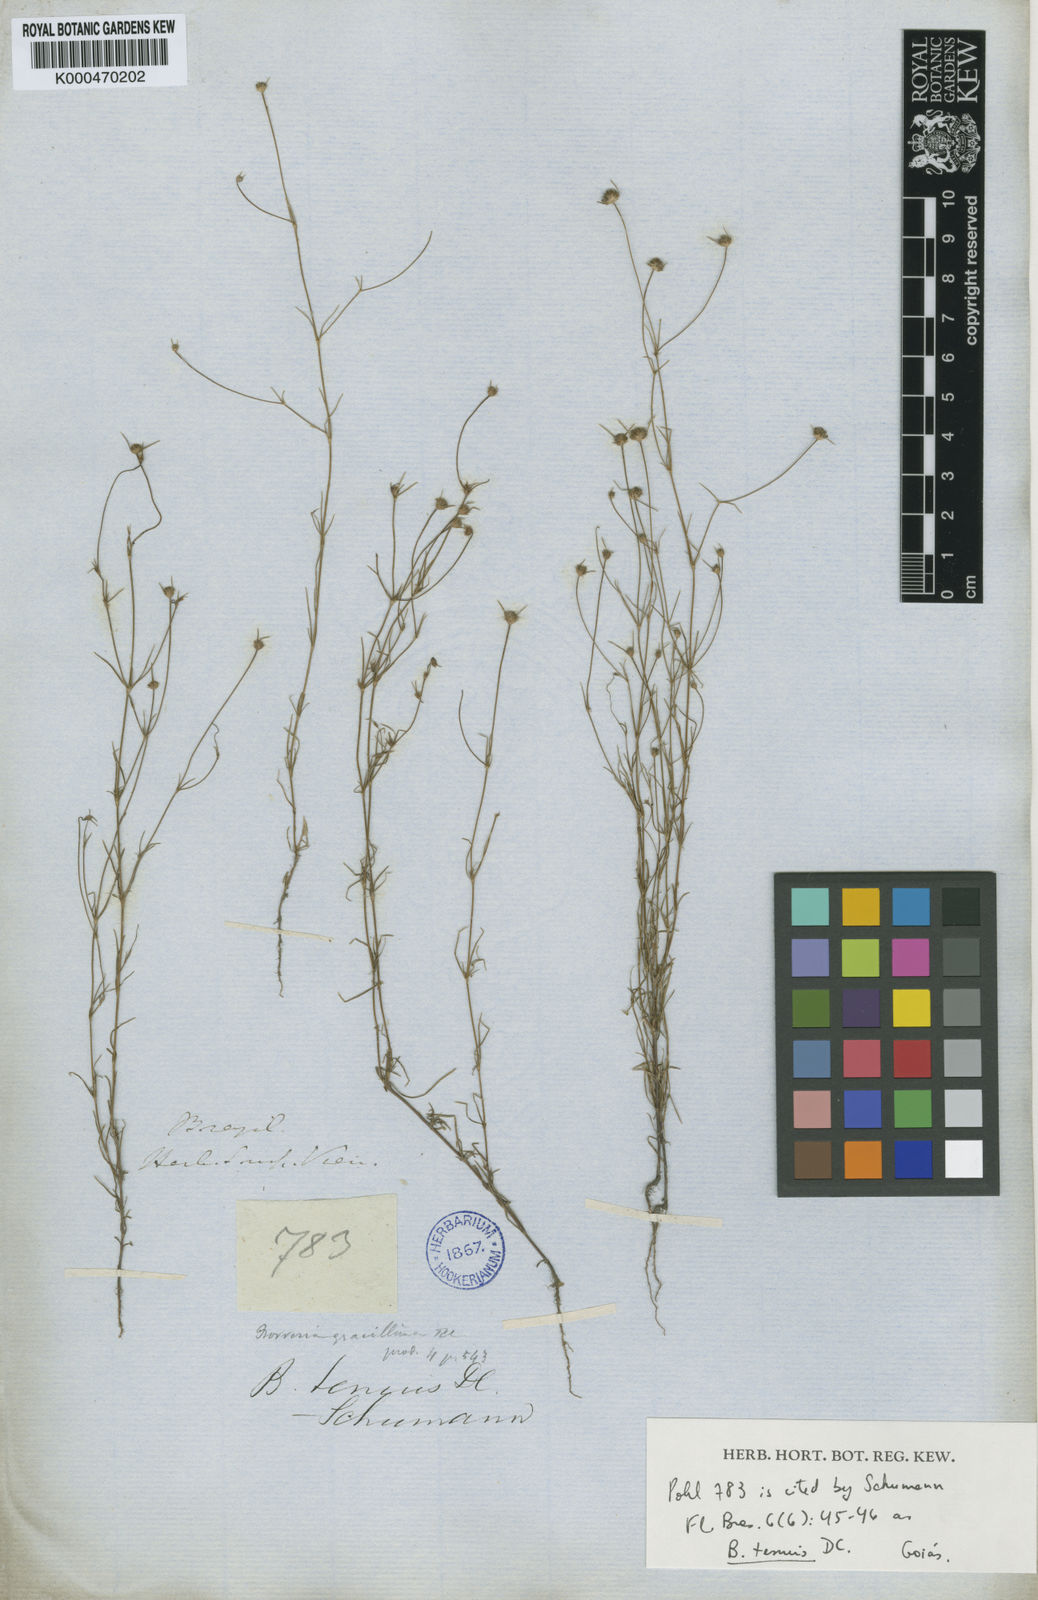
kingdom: Plantae
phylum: Tracheophyta
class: Magnoliopsida
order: Gentianales
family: Rubiaceae
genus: Spermacoce
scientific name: Spermacoce suaveolens
